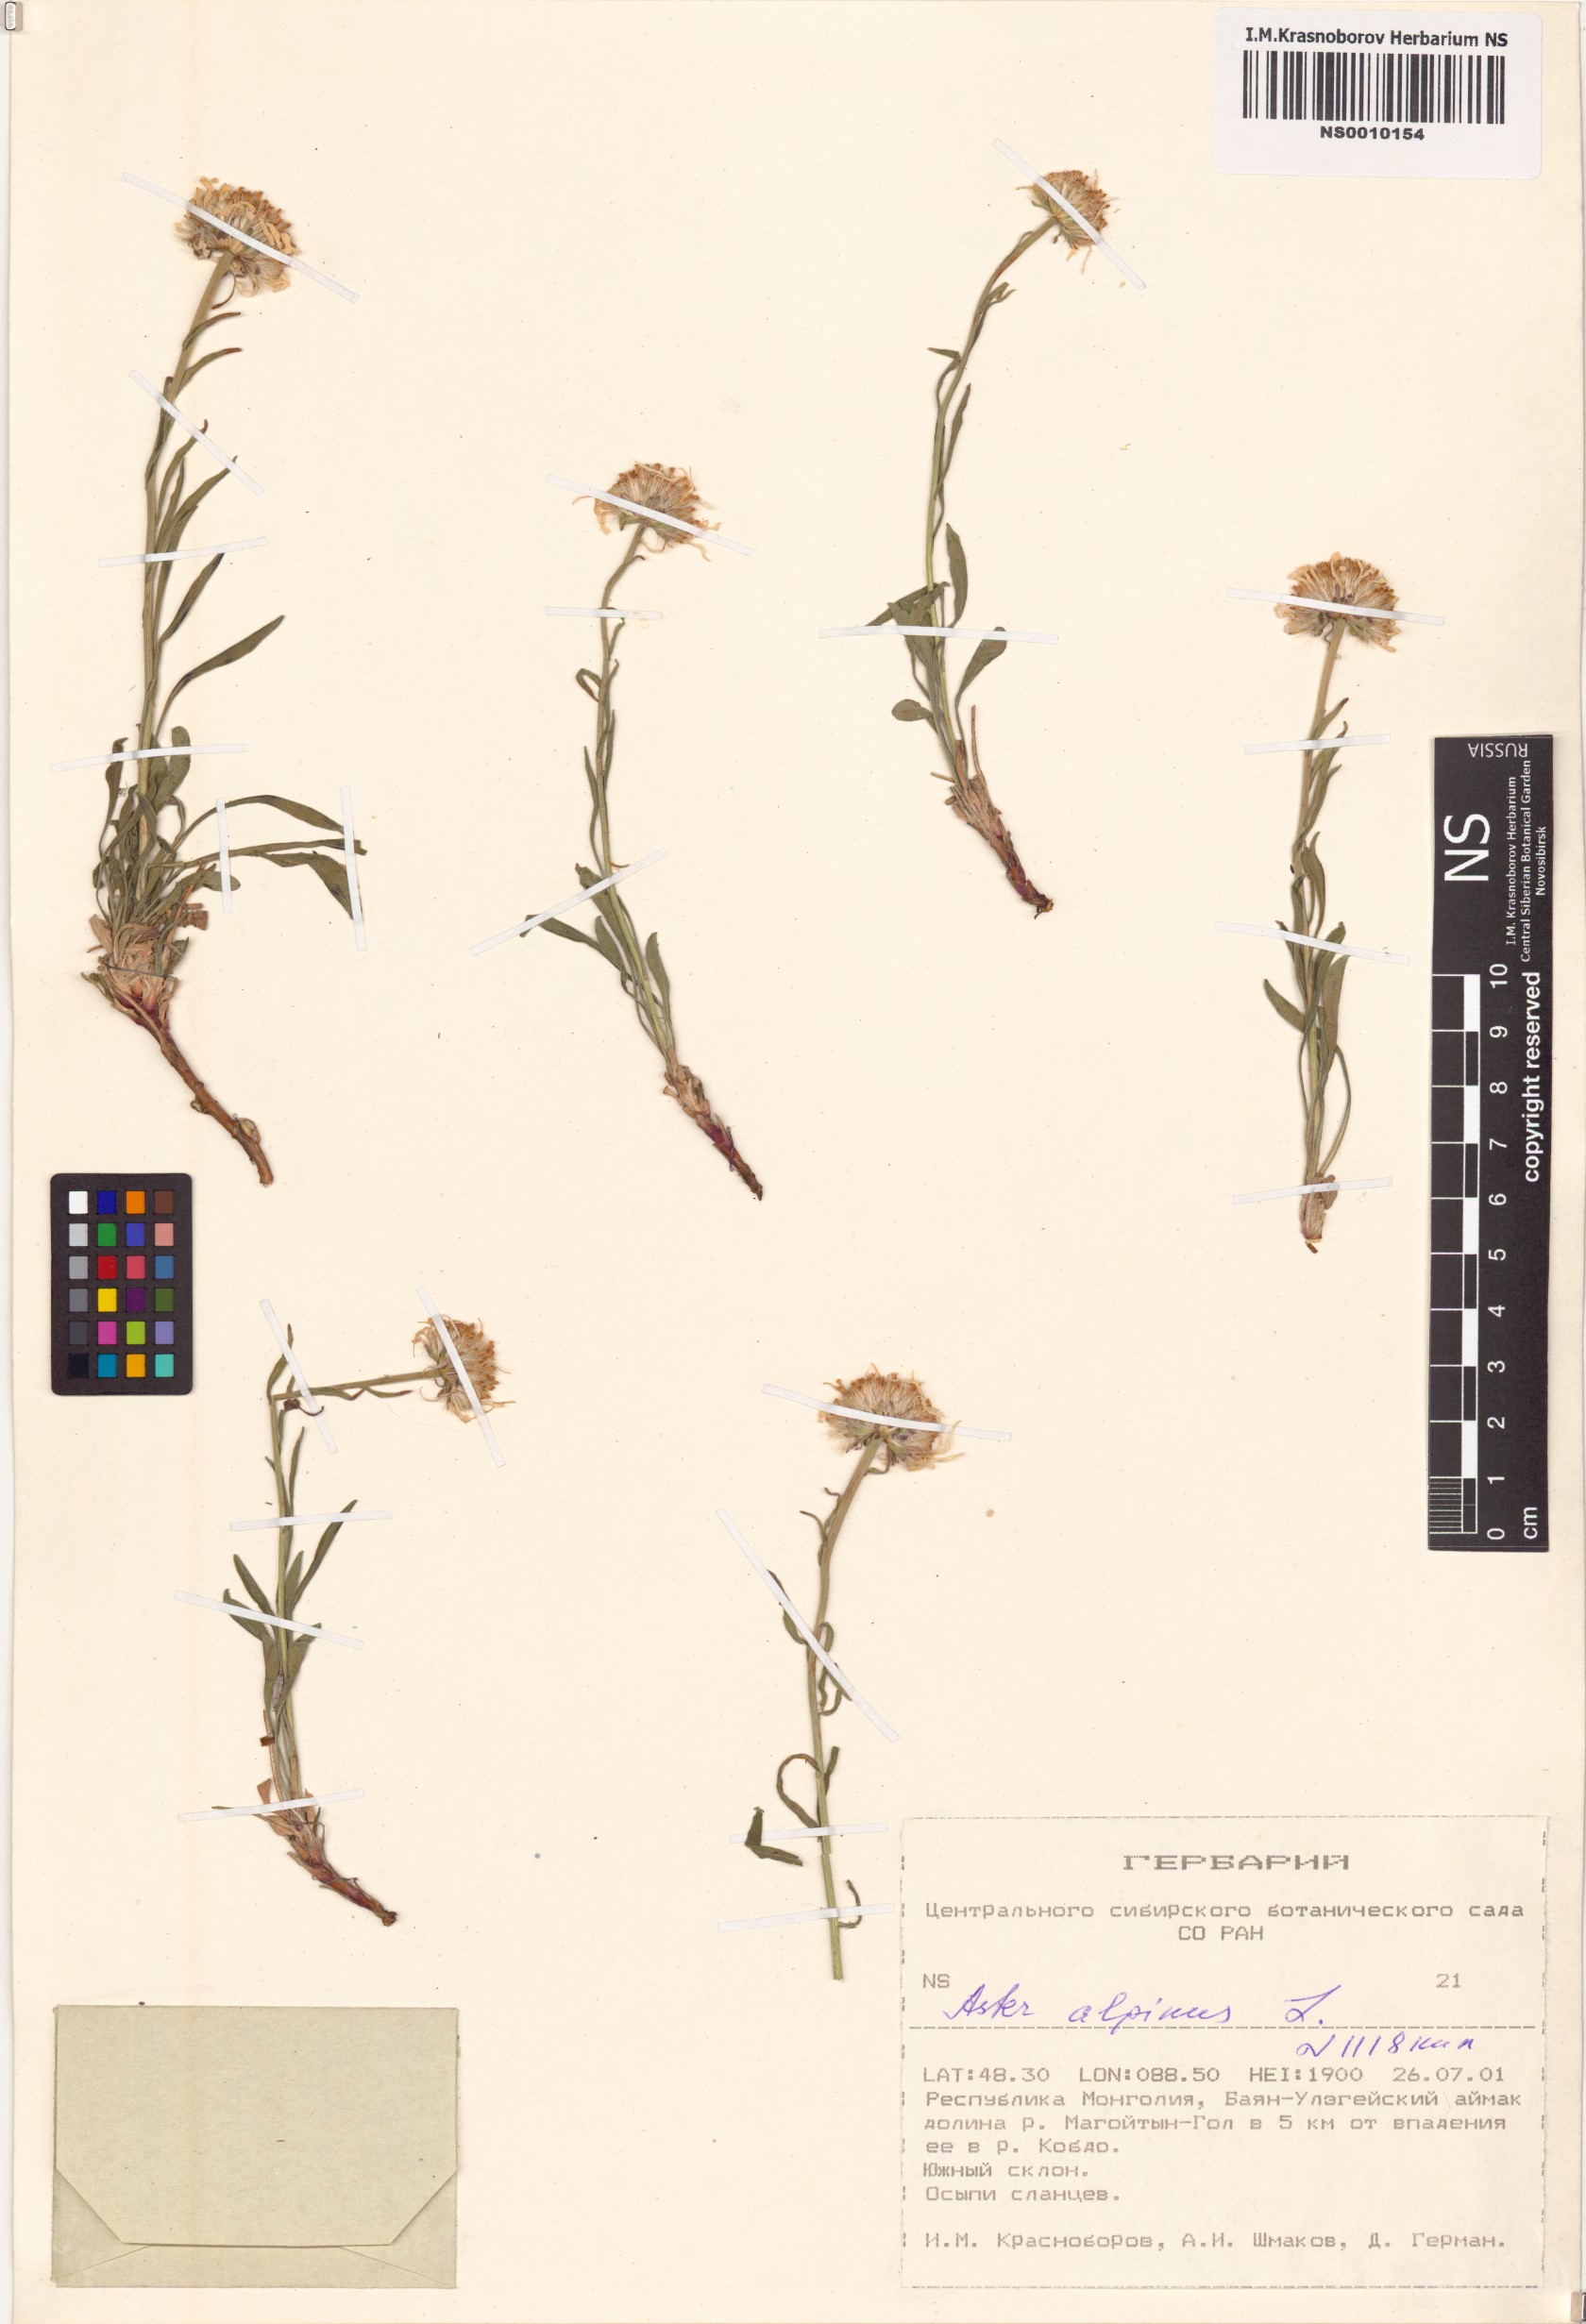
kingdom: Plantae
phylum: Tracheophyta
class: Magnoliopsida
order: Asterales
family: Asteraceae
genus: Aster
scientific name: Aster alpinus
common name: Alpine aster
